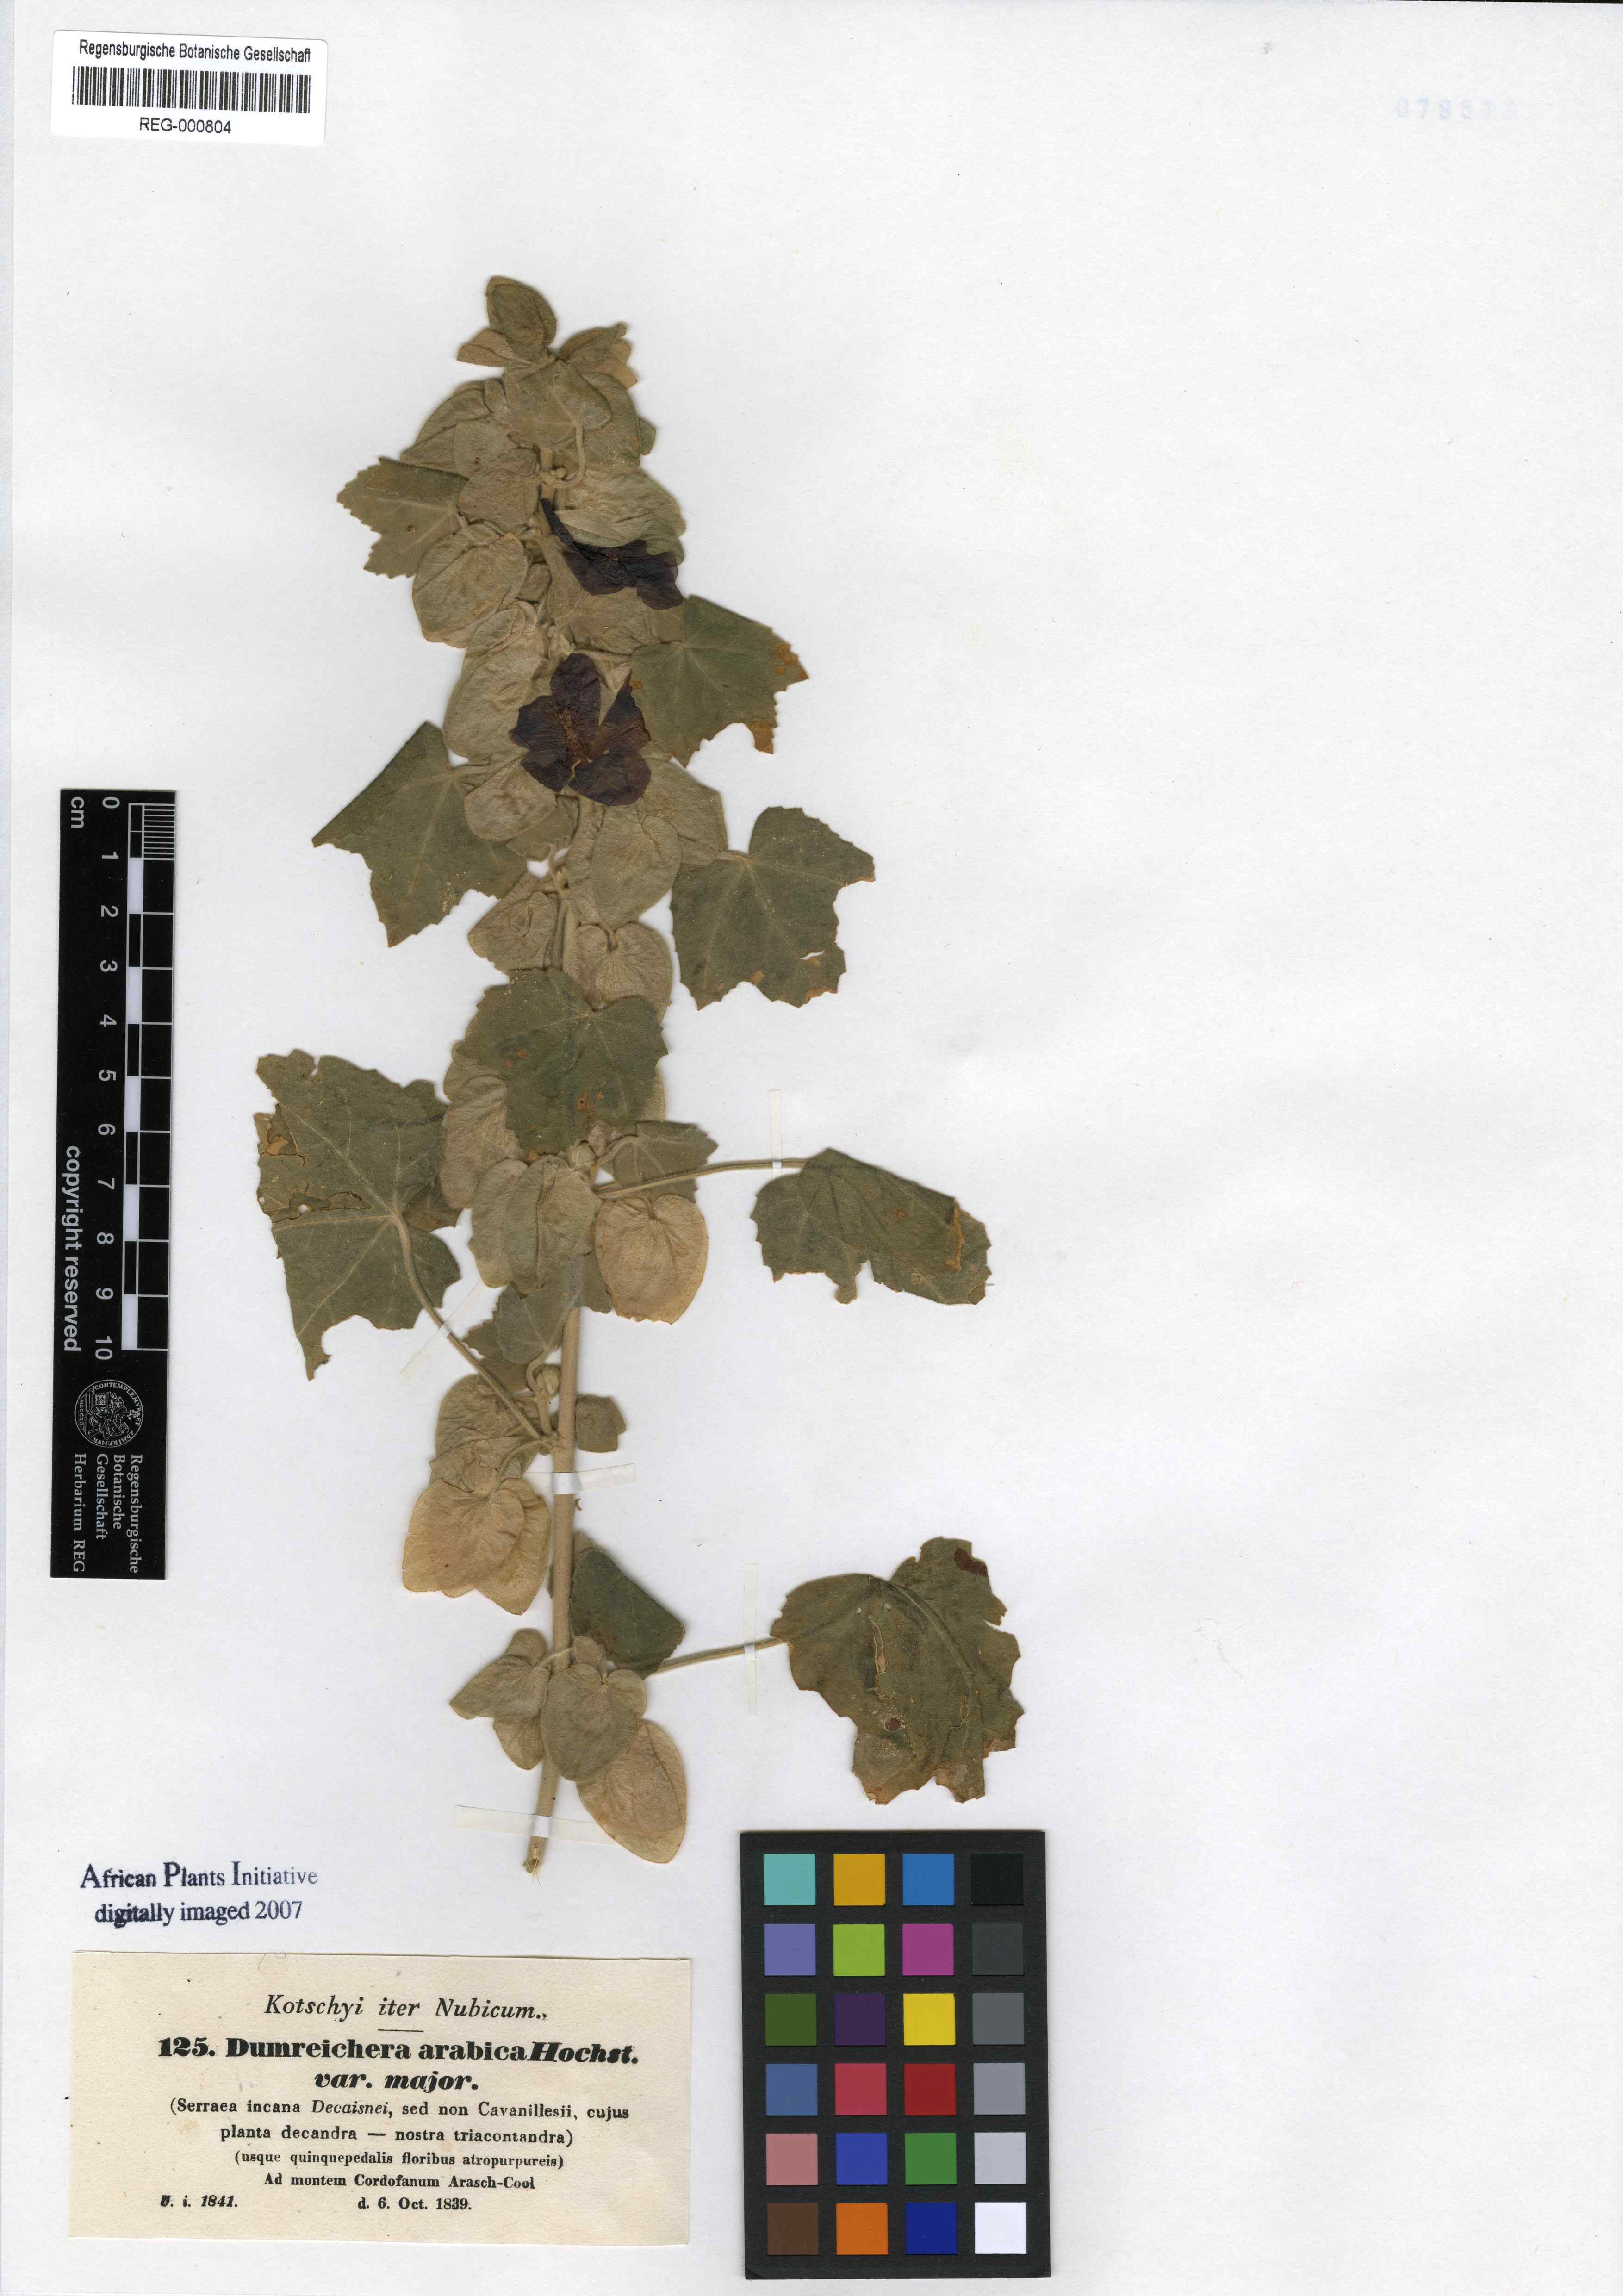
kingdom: Plantae
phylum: Tracheophyta
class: Magnoliopsida
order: Malvales
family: Malvaceae
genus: Senra
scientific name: Senra incana
